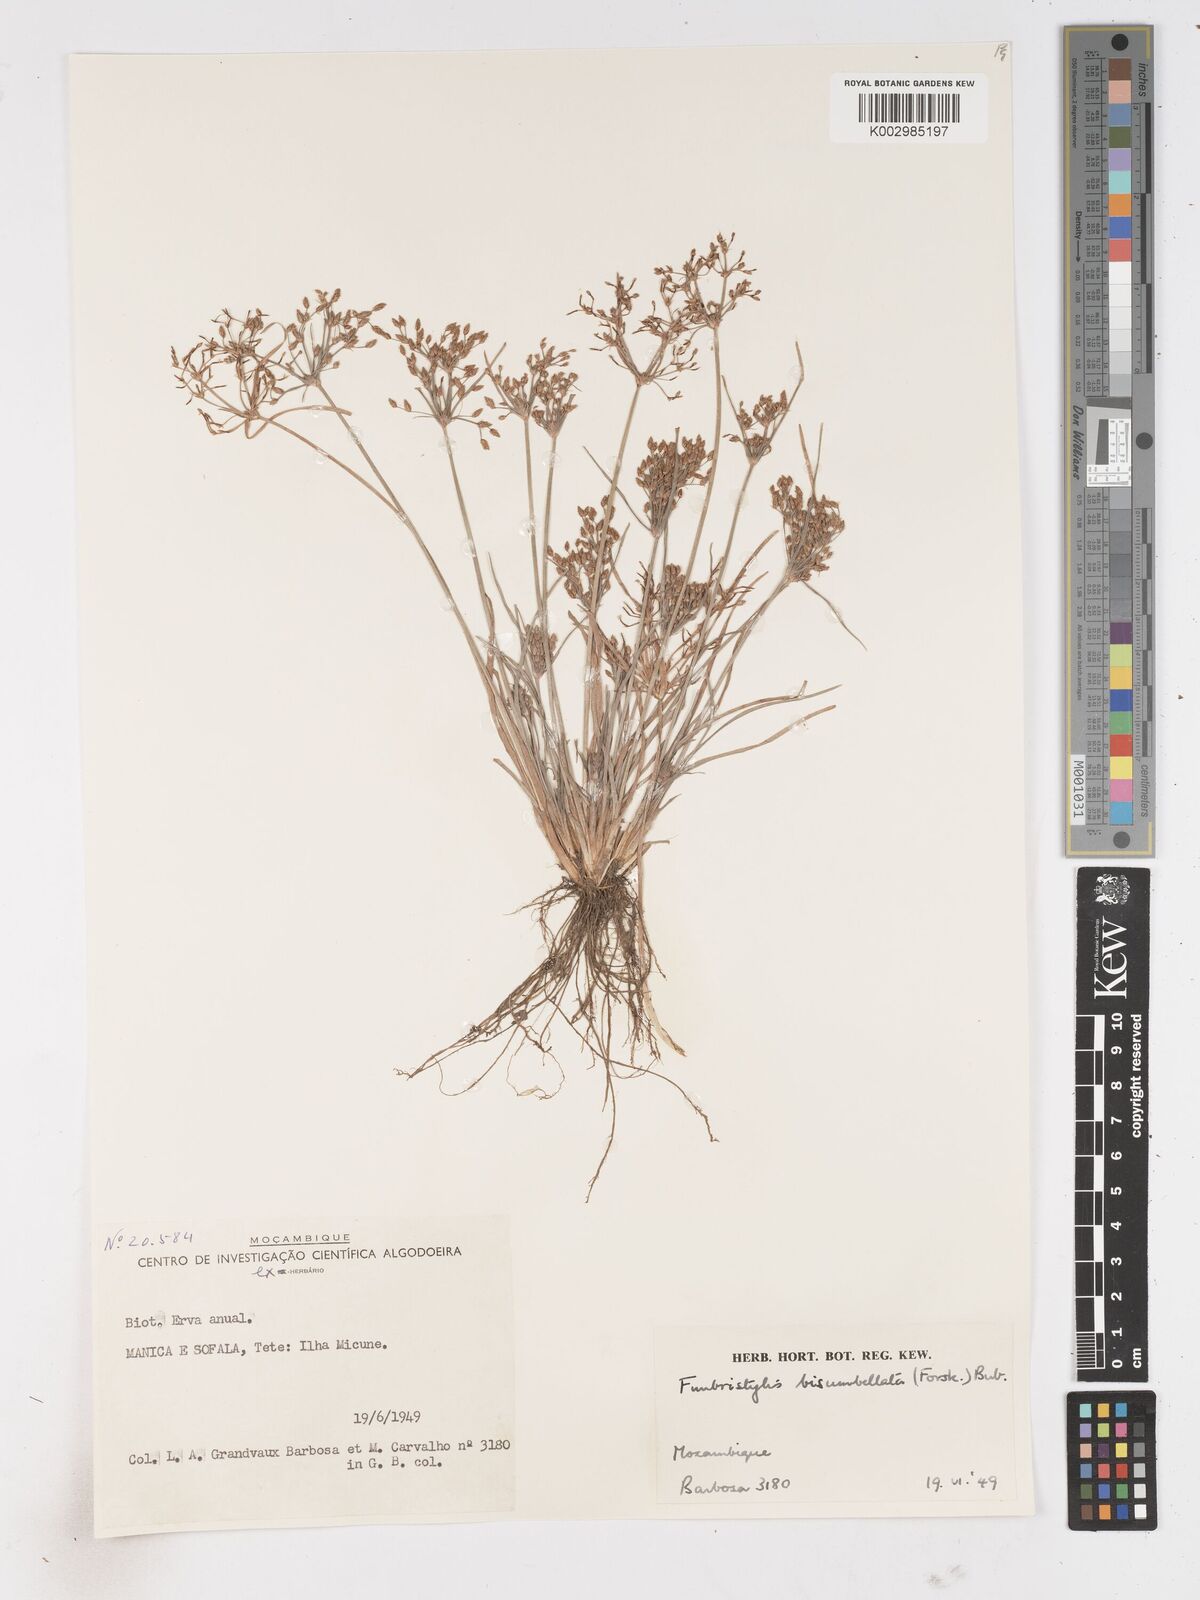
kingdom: Plantae
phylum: Tracheophyta
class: Liliopsida
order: Poales
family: Cyperaceae
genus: Fimbristylis
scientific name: Fimbristylis bisumbellata
